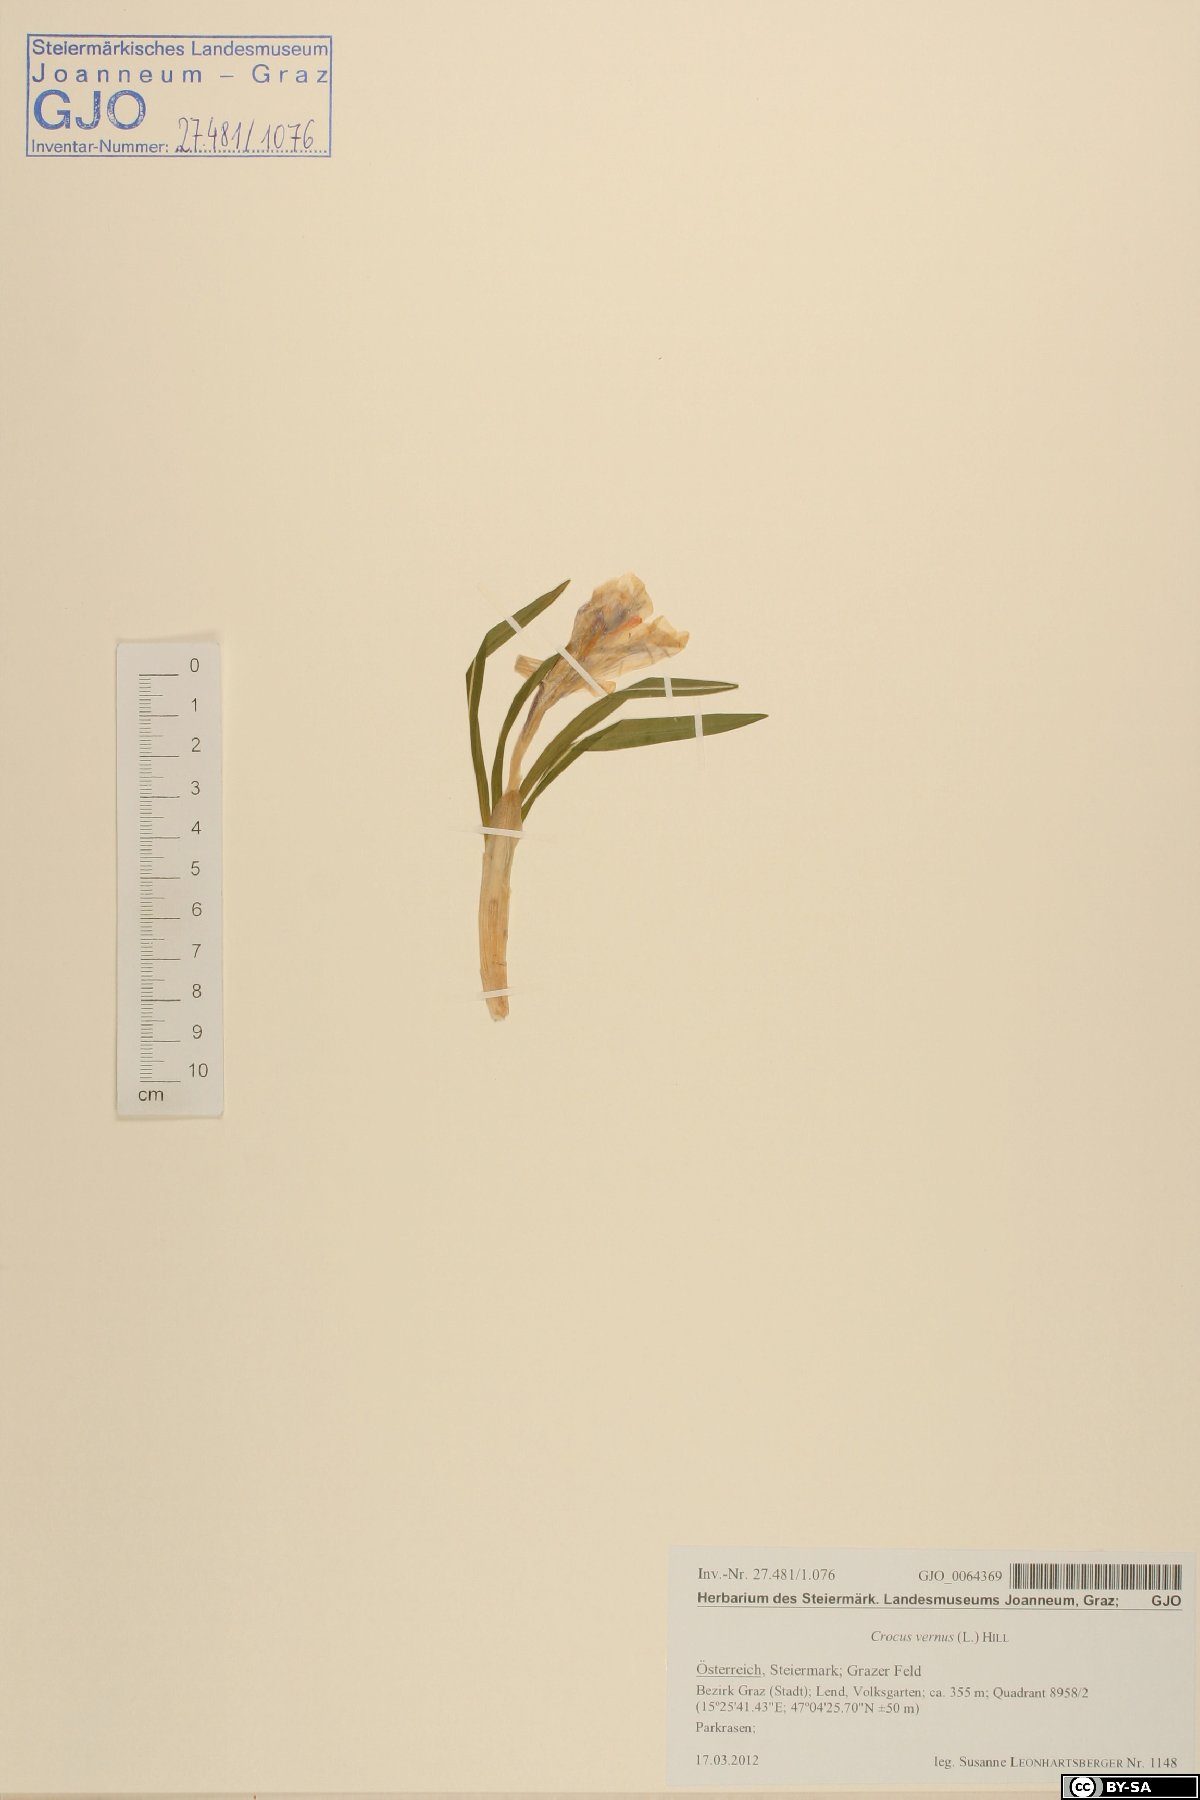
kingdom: Plantae
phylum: Tracheophyta
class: Liliopsida
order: Asparagales
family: Iridaceae
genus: Crocus
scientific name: Crocus vernus
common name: Spring crocus
